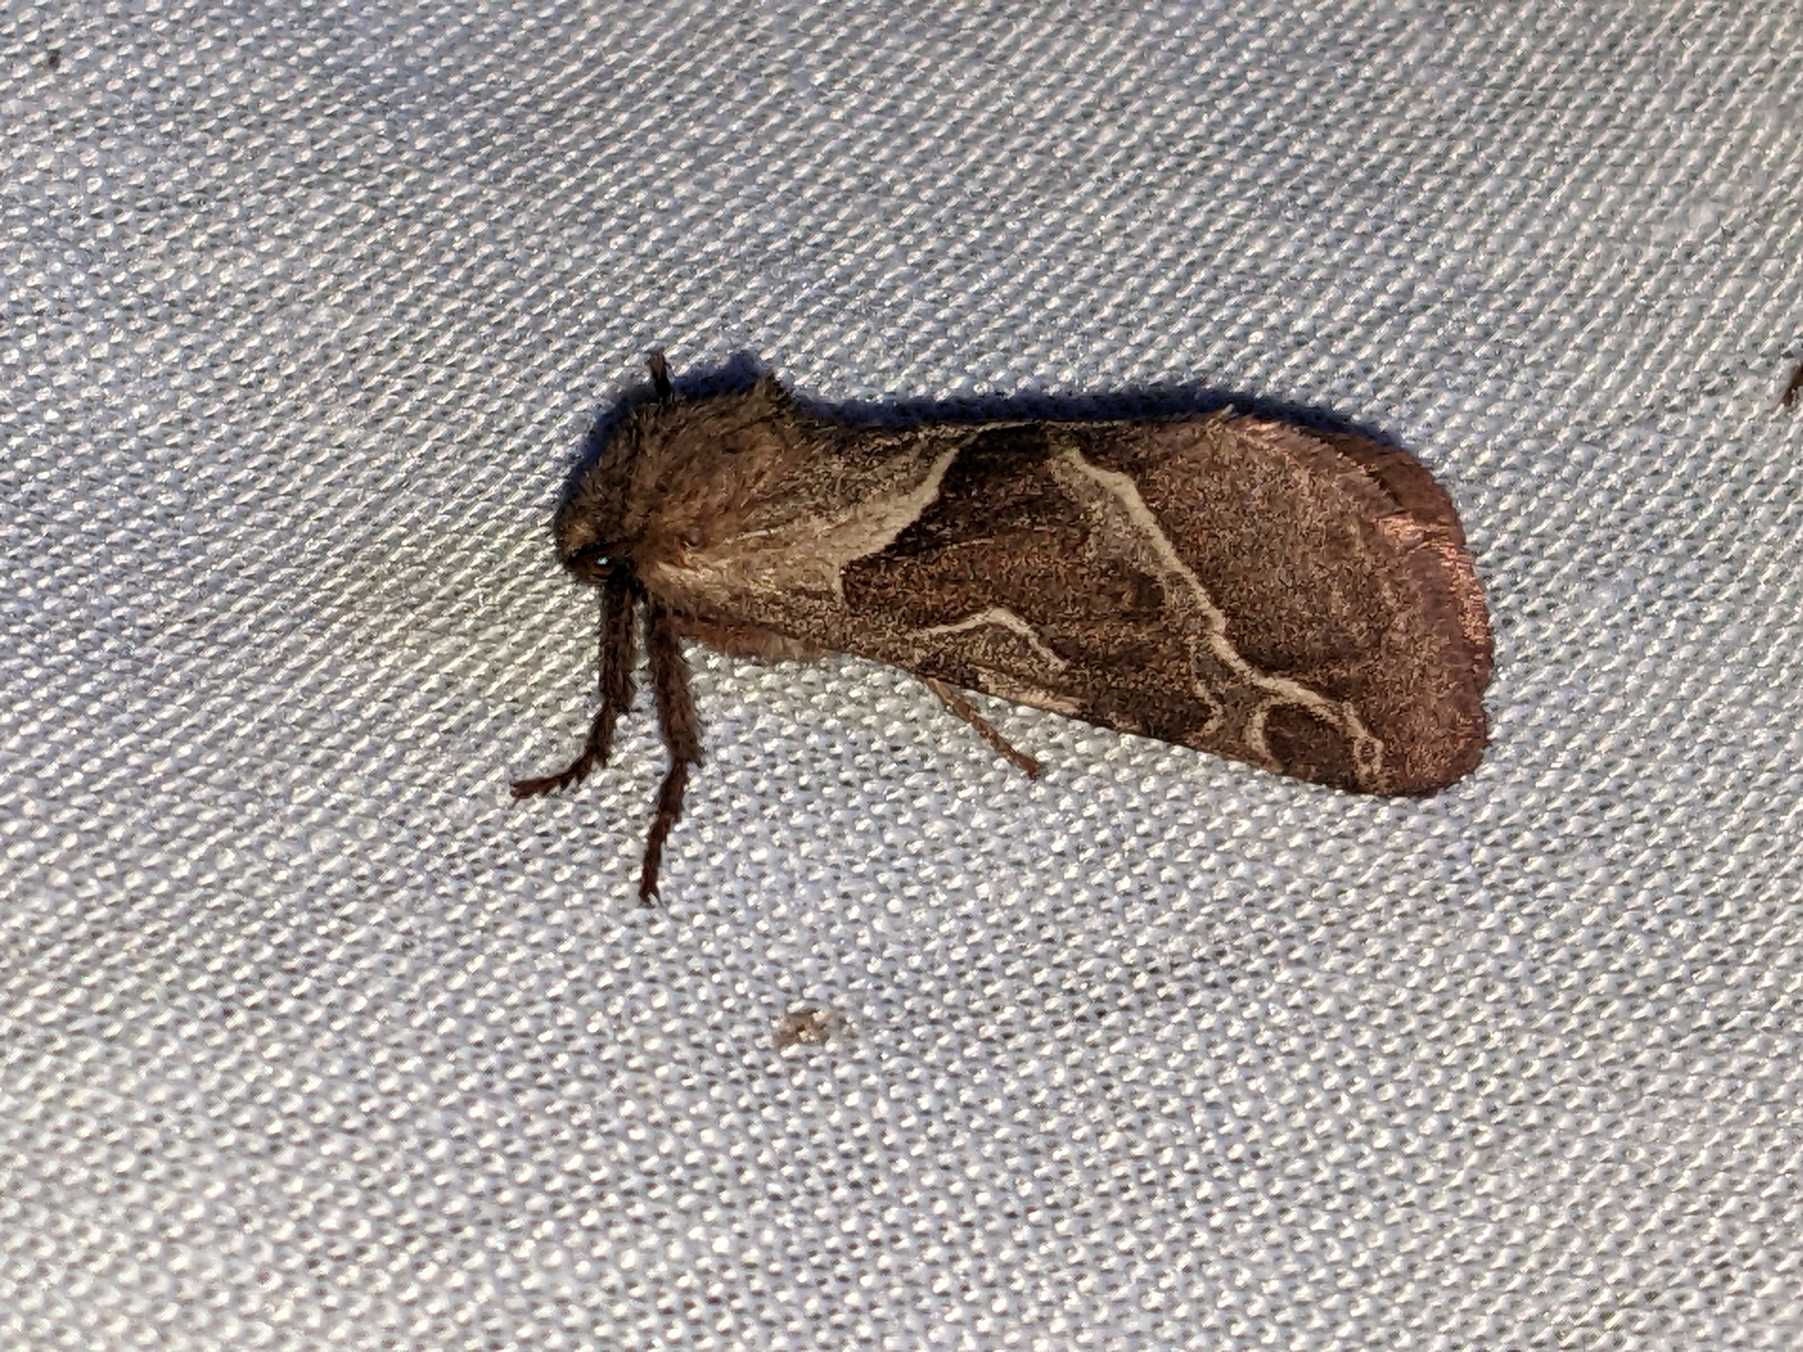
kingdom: Animalia
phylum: Arthropoda
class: Insecta
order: Lepidoptera
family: Hepialidae
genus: Triodia
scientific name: Triodia sylvina
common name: Skræpperodæder
